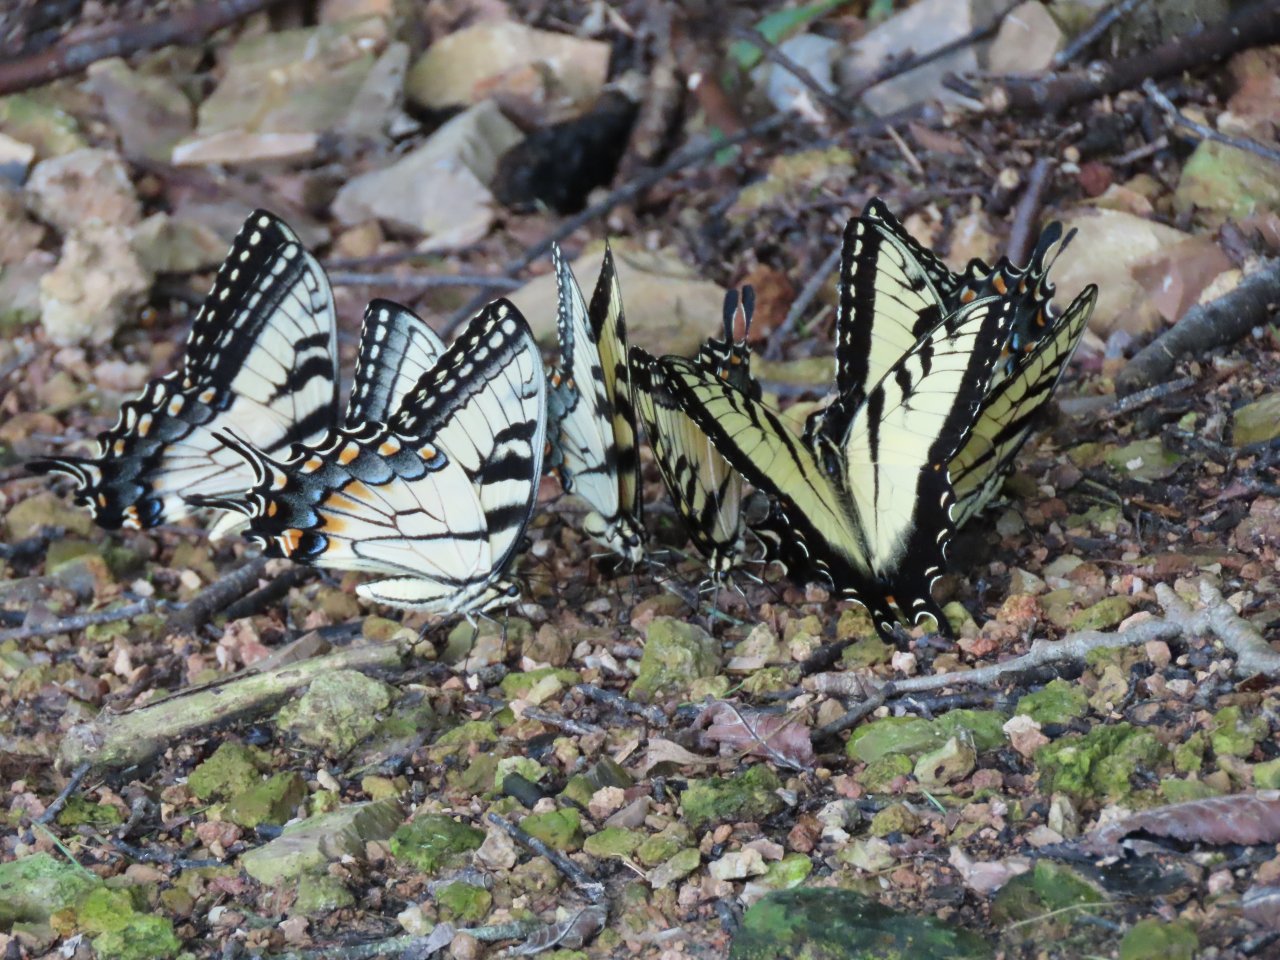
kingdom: Animalia
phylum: Arthropoda
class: Insecta
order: Lepidoptera
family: Papilionidae
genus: Pterourus
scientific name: Pterourus glaucus
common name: Eastern Tiger Swallowtail
